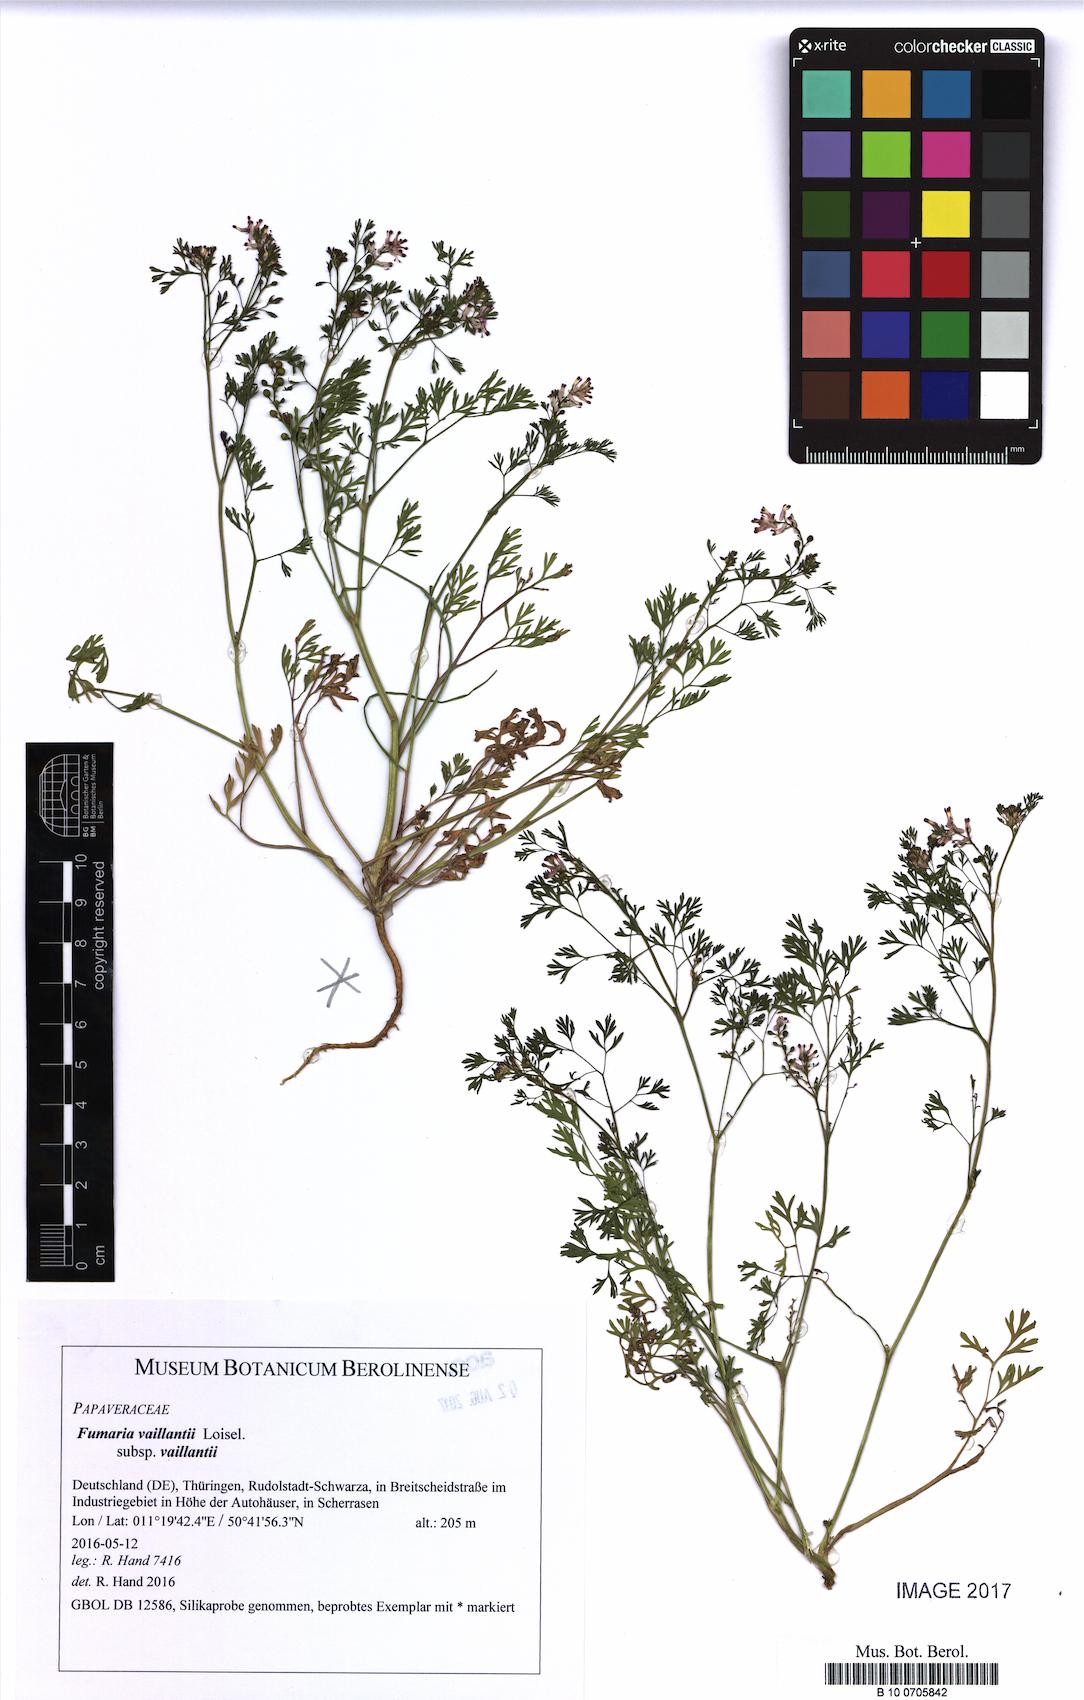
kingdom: Plantae
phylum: Tracheophyta
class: Magnoliopsida
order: Ranunculales
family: Papaveraceae
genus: Fumaria
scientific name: Fumaria vaillantii
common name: Few-flowered fumitory
